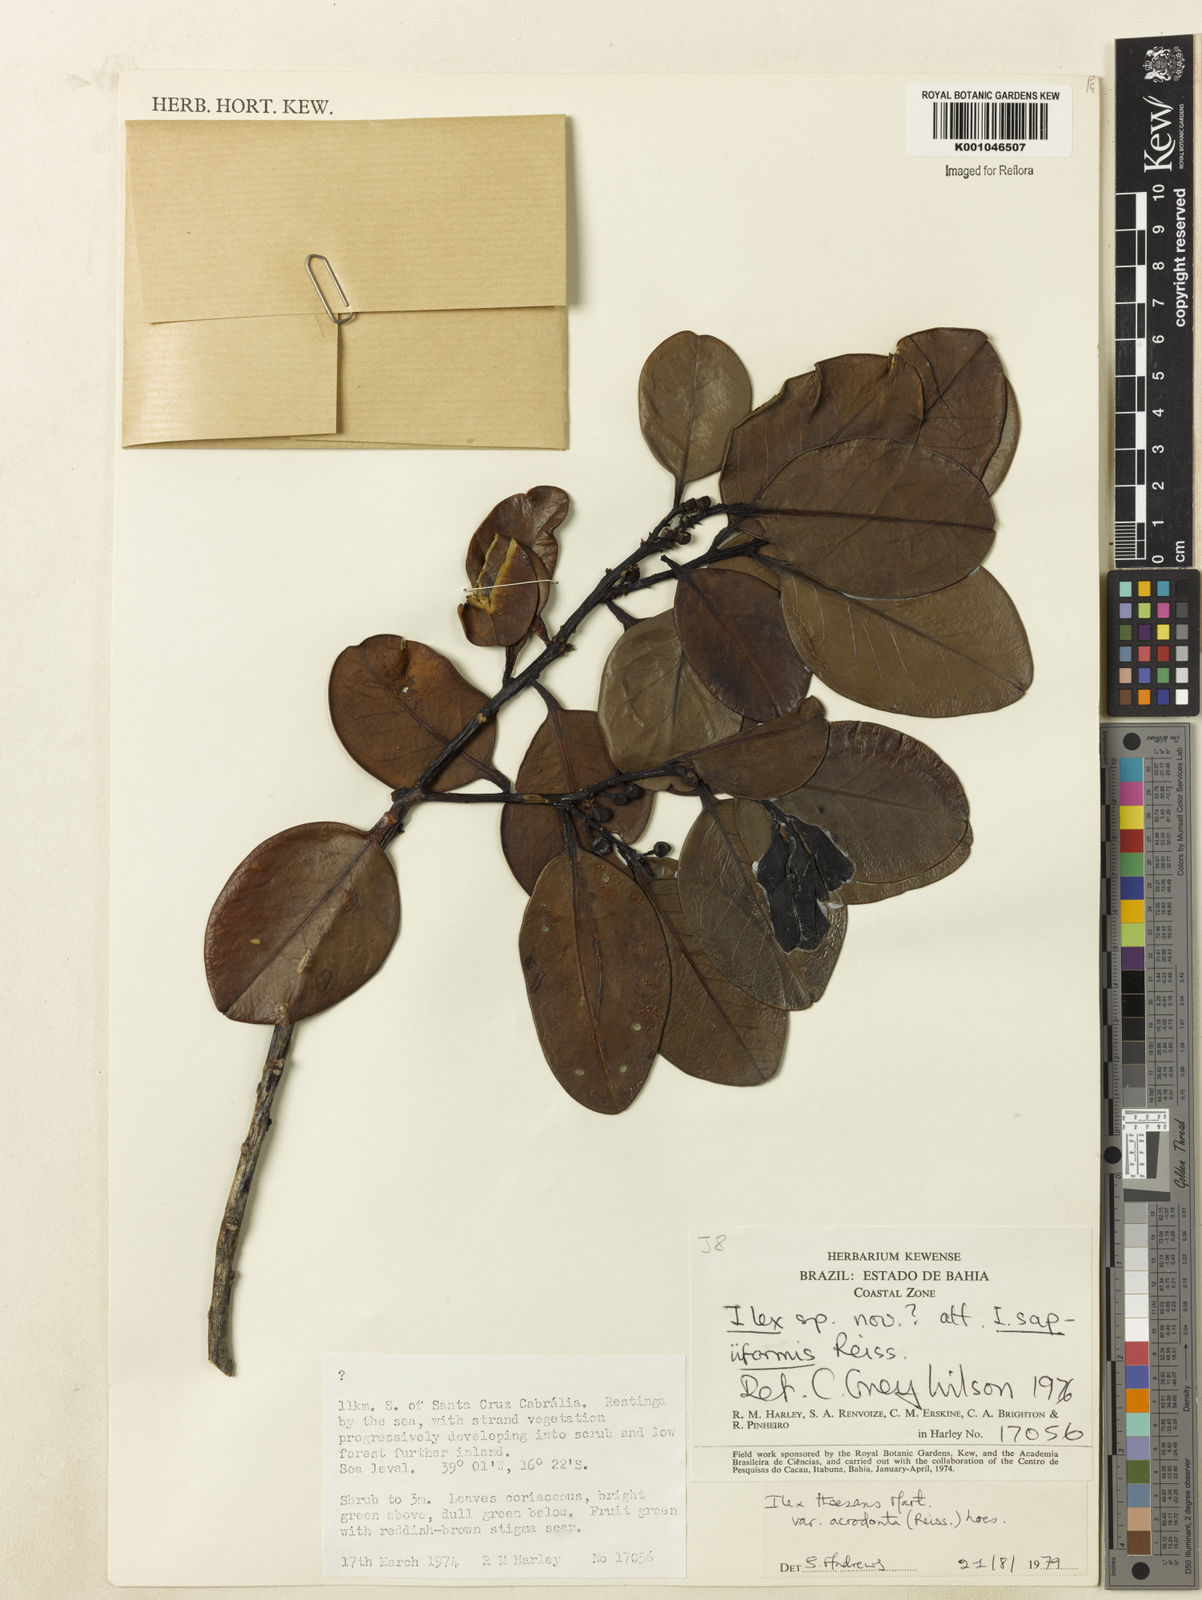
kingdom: Plantae
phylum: Tracheophyta
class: Magnoliopsida
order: Aquifoliales
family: Aquifoliaceae
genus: Ilex
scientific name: Ilex theezans
